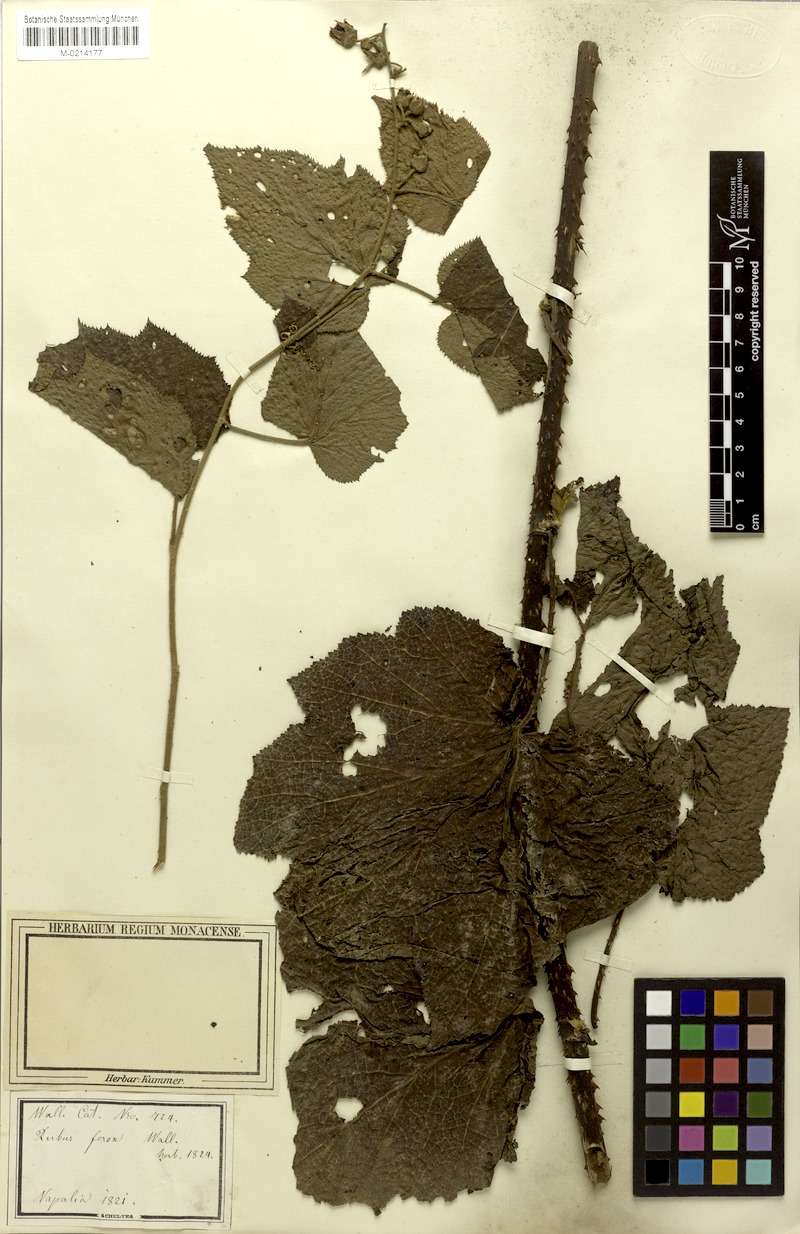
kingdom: Plantae
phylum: Tracheophyta
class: Magnoliopsida
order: Rosales
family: Rosaceae
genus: Rubus
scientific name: Rubus efferatus
